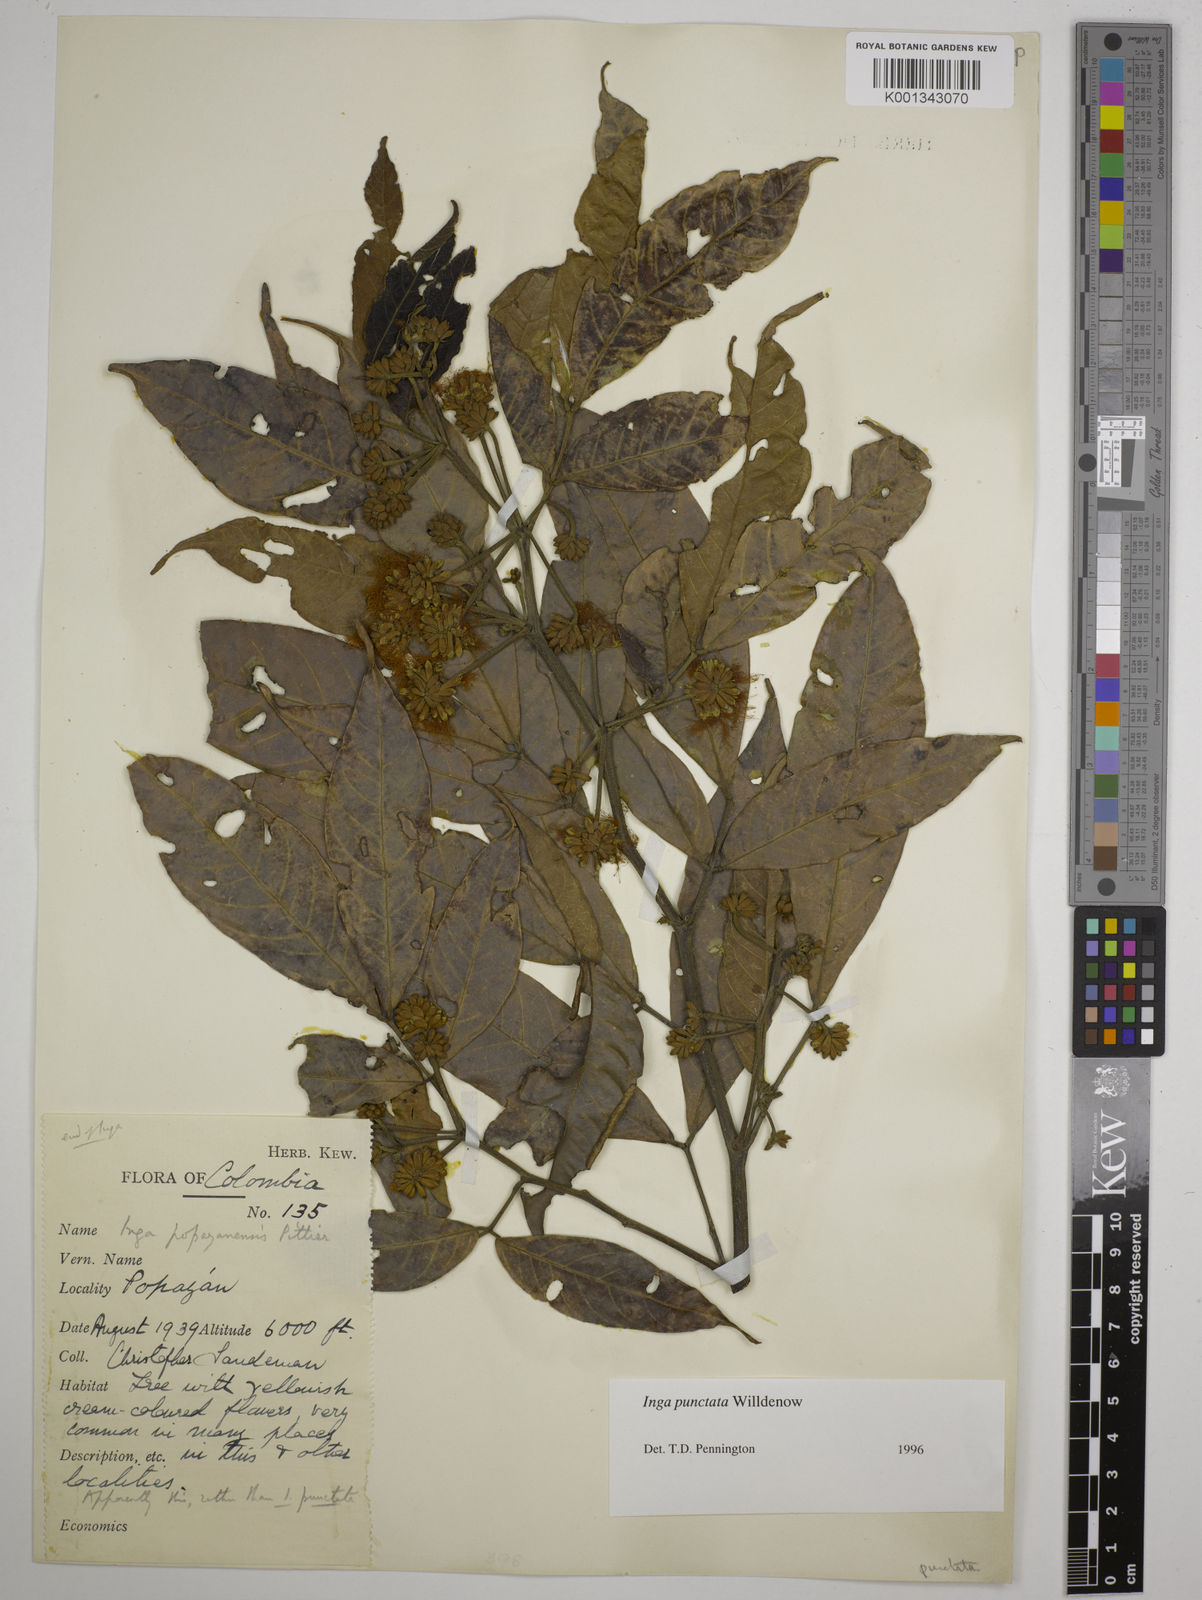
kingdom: Plantae
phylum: Tracheophyta
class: Magnoliopsida
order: Fabales
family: Fabaceae
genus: Inga
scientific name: Inga punctata
